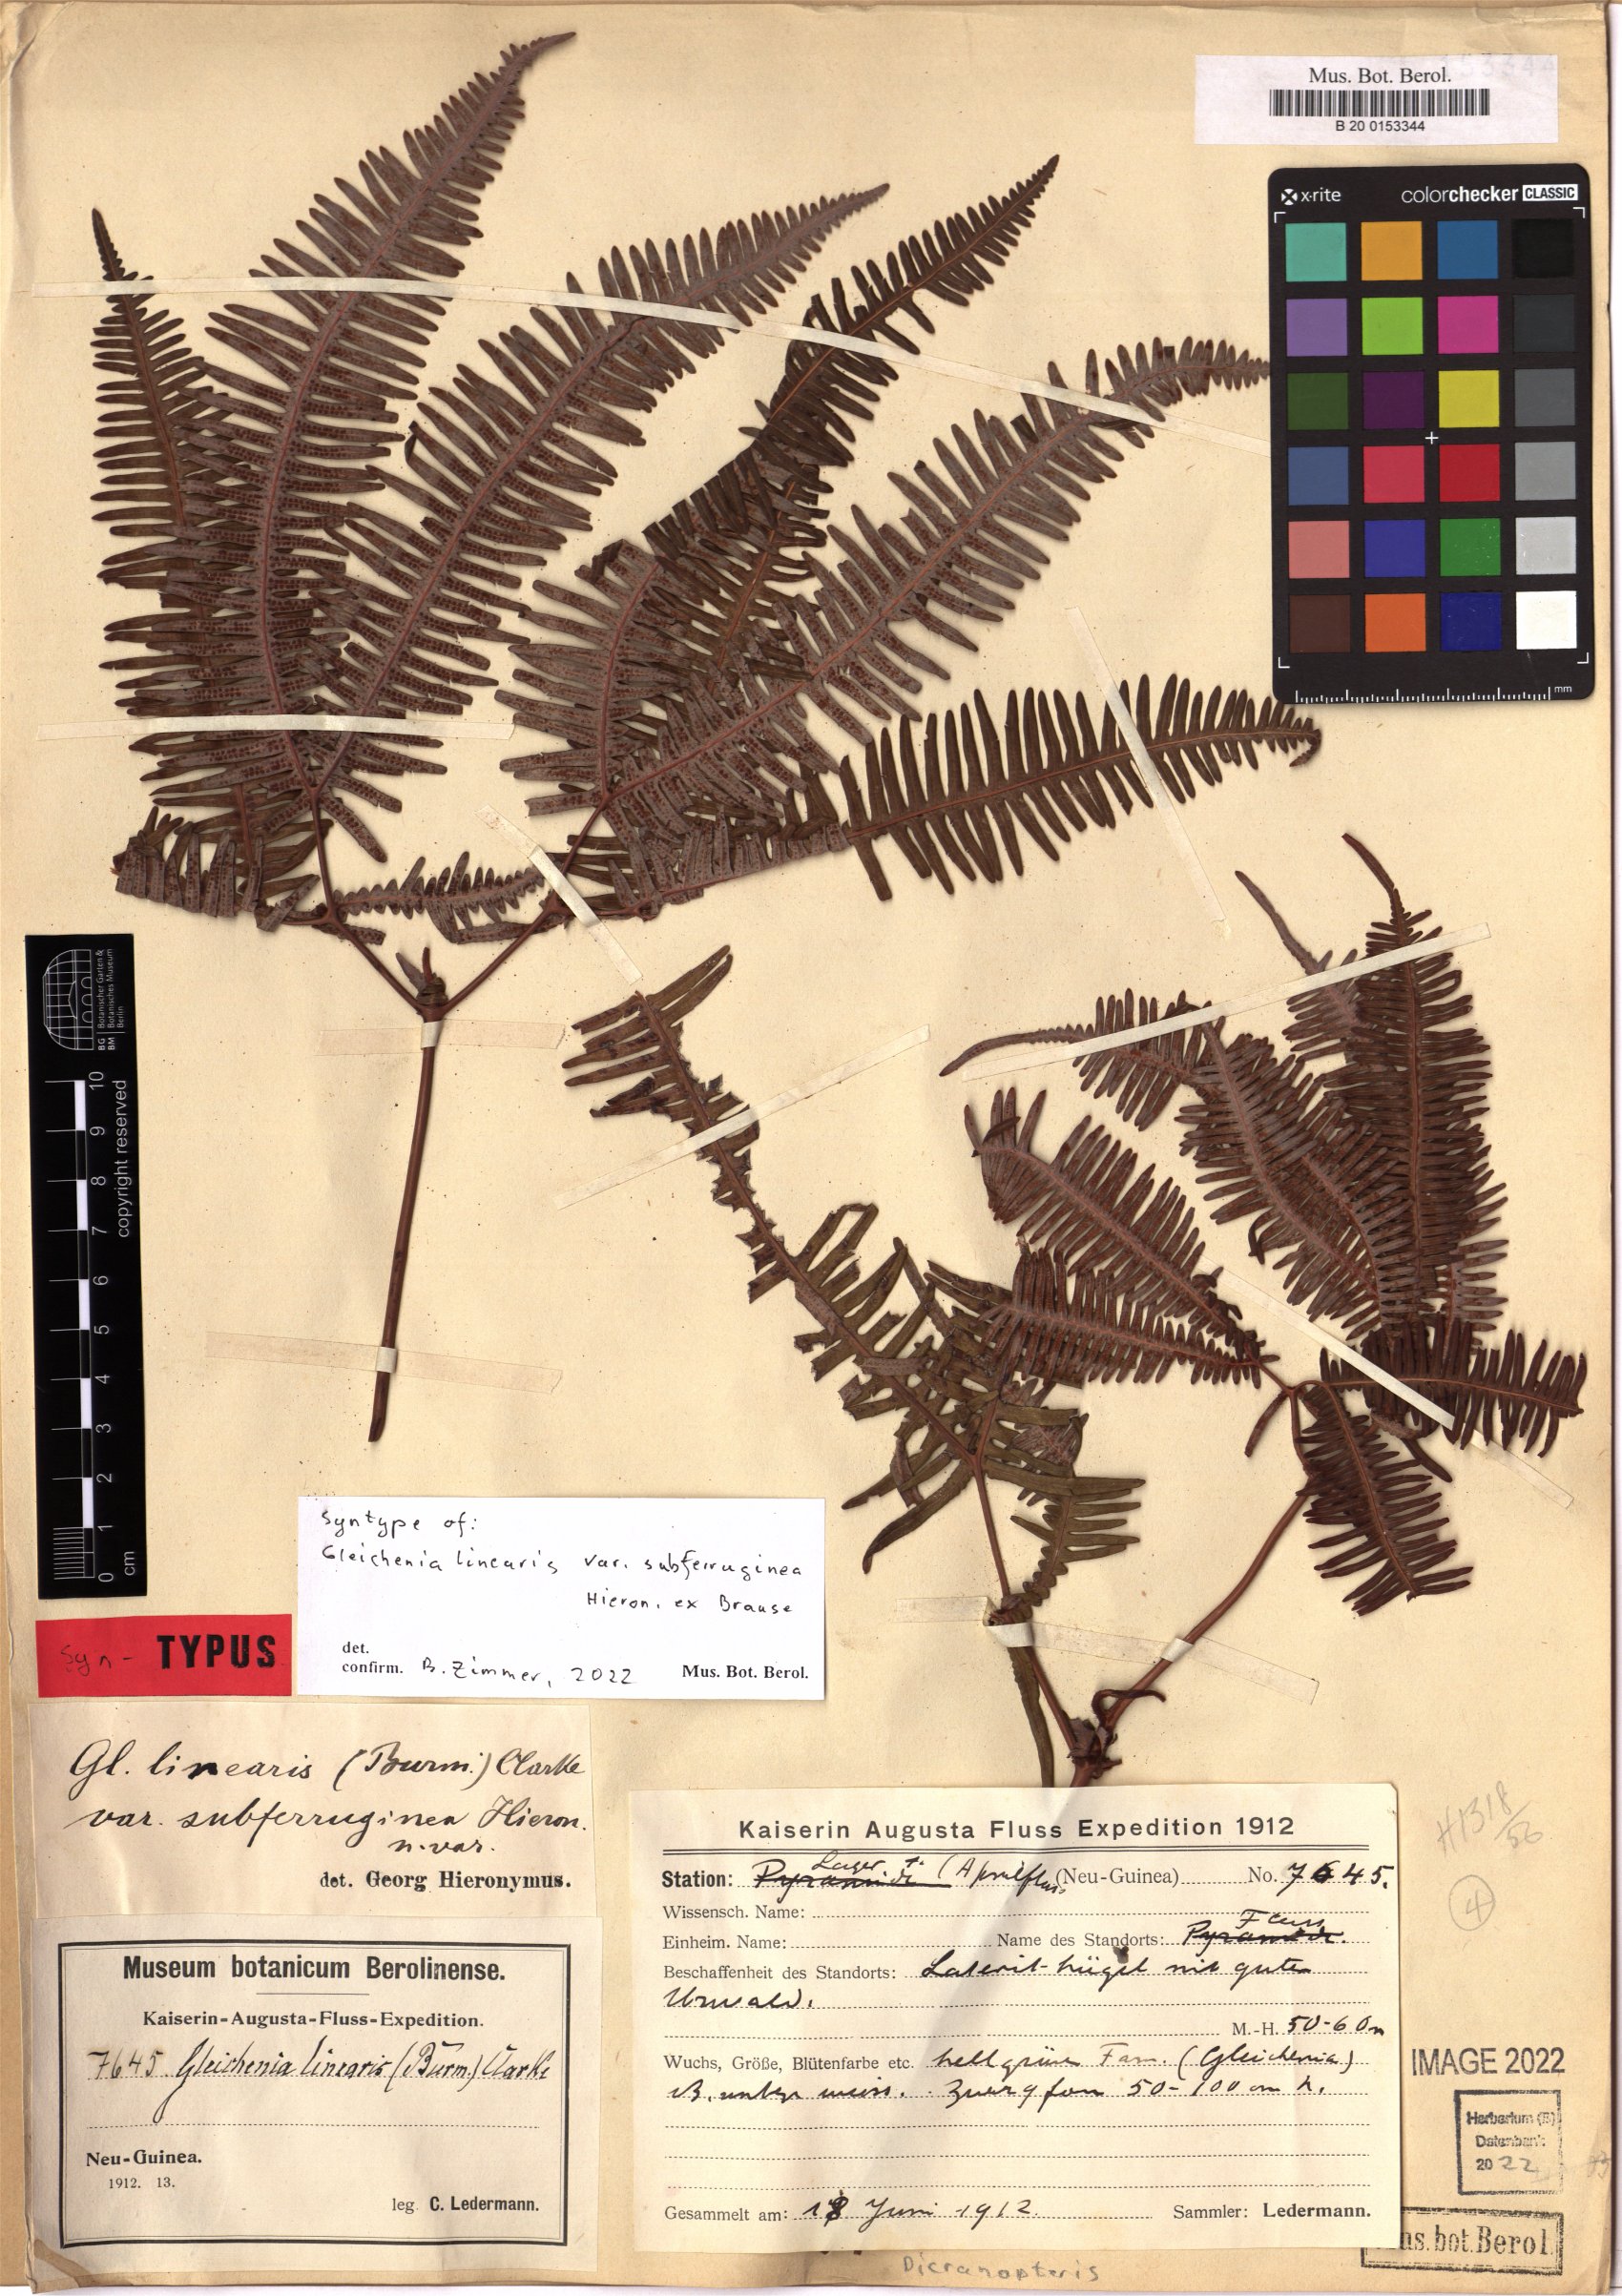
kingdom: Plantae
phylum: Tracheophyta
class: Polypodiopsida
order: Gleicheniales
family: Gleicheniaceae
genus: Dicranopteris
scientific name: Dicranopteris linearis
